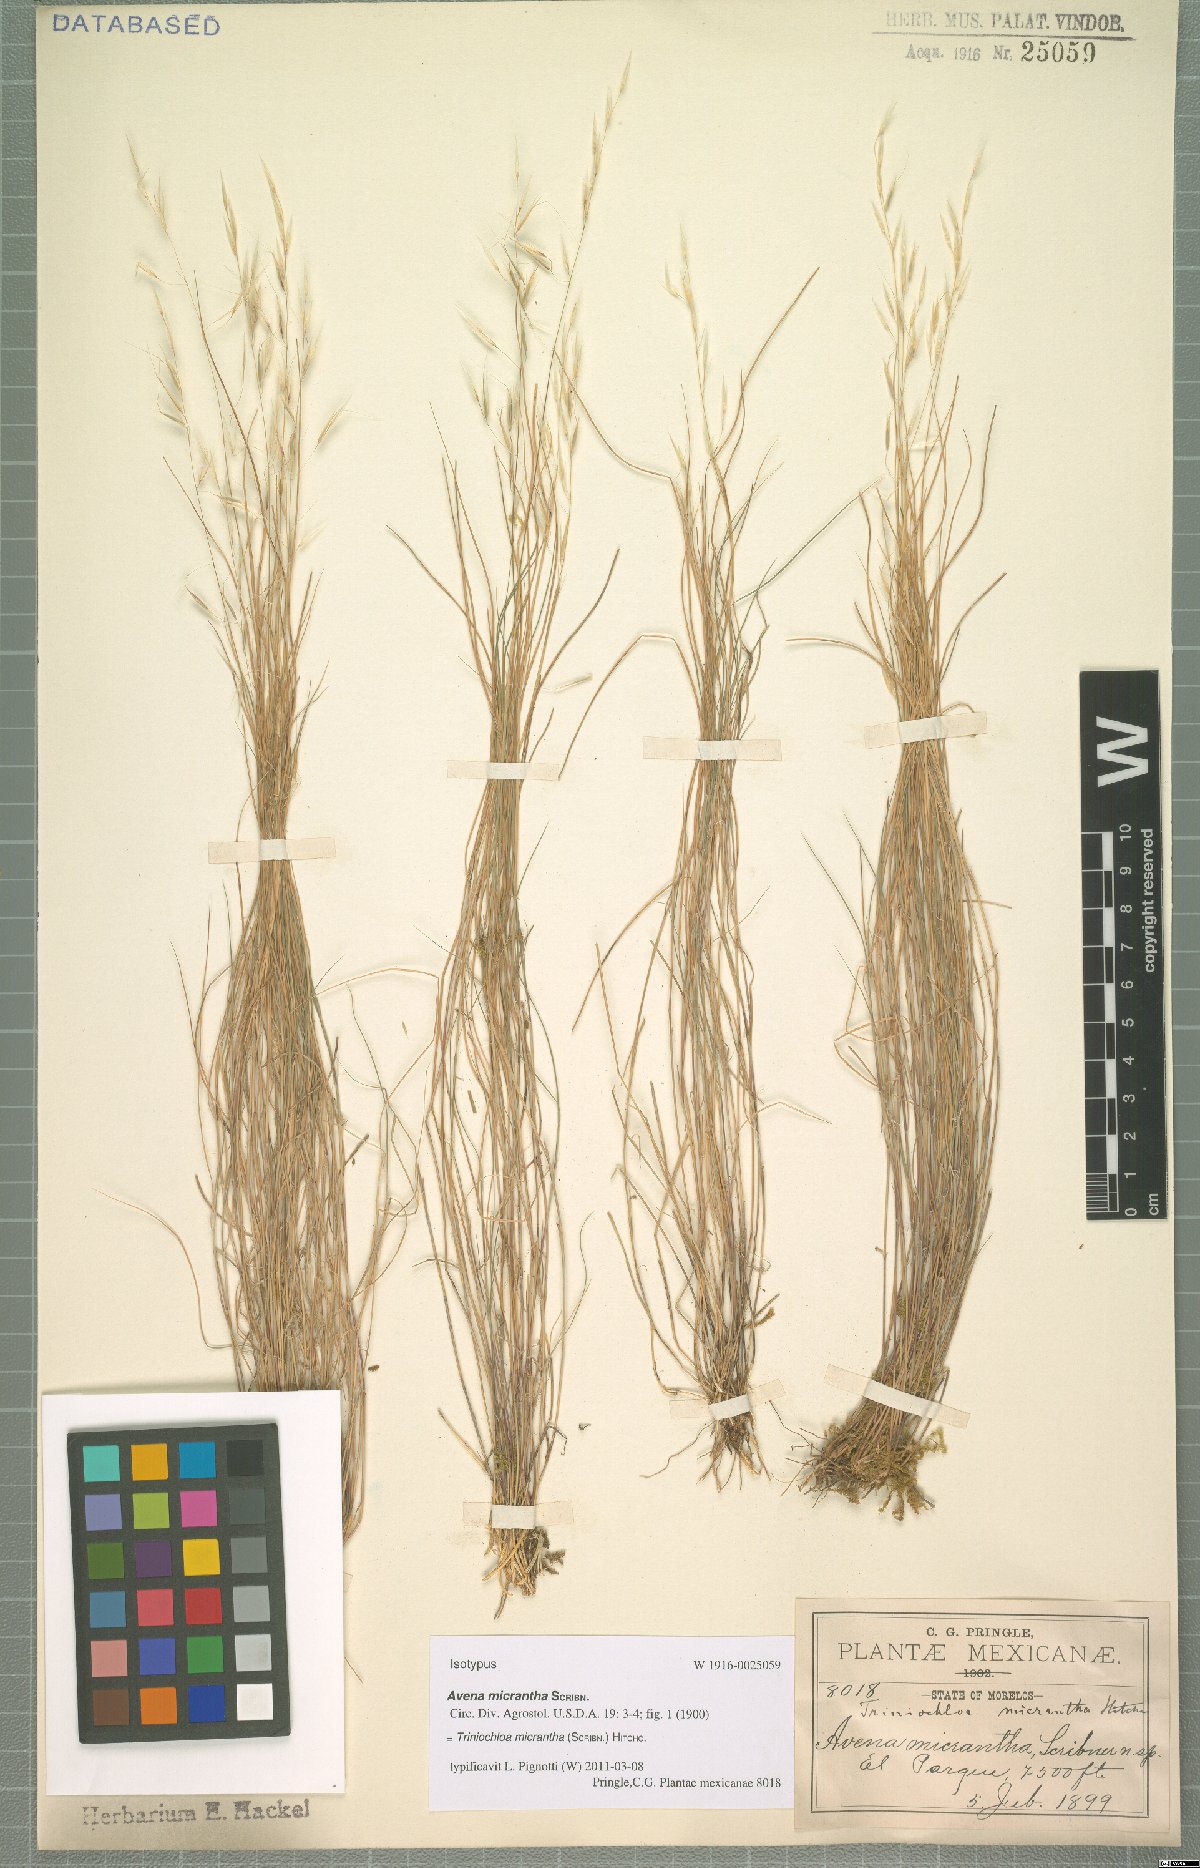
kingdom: Plantae
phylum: Tracheophyta
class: Liliopsida
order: Poales
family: Poaceae
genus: Triniochloa
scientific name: Triniochloa micrantha
